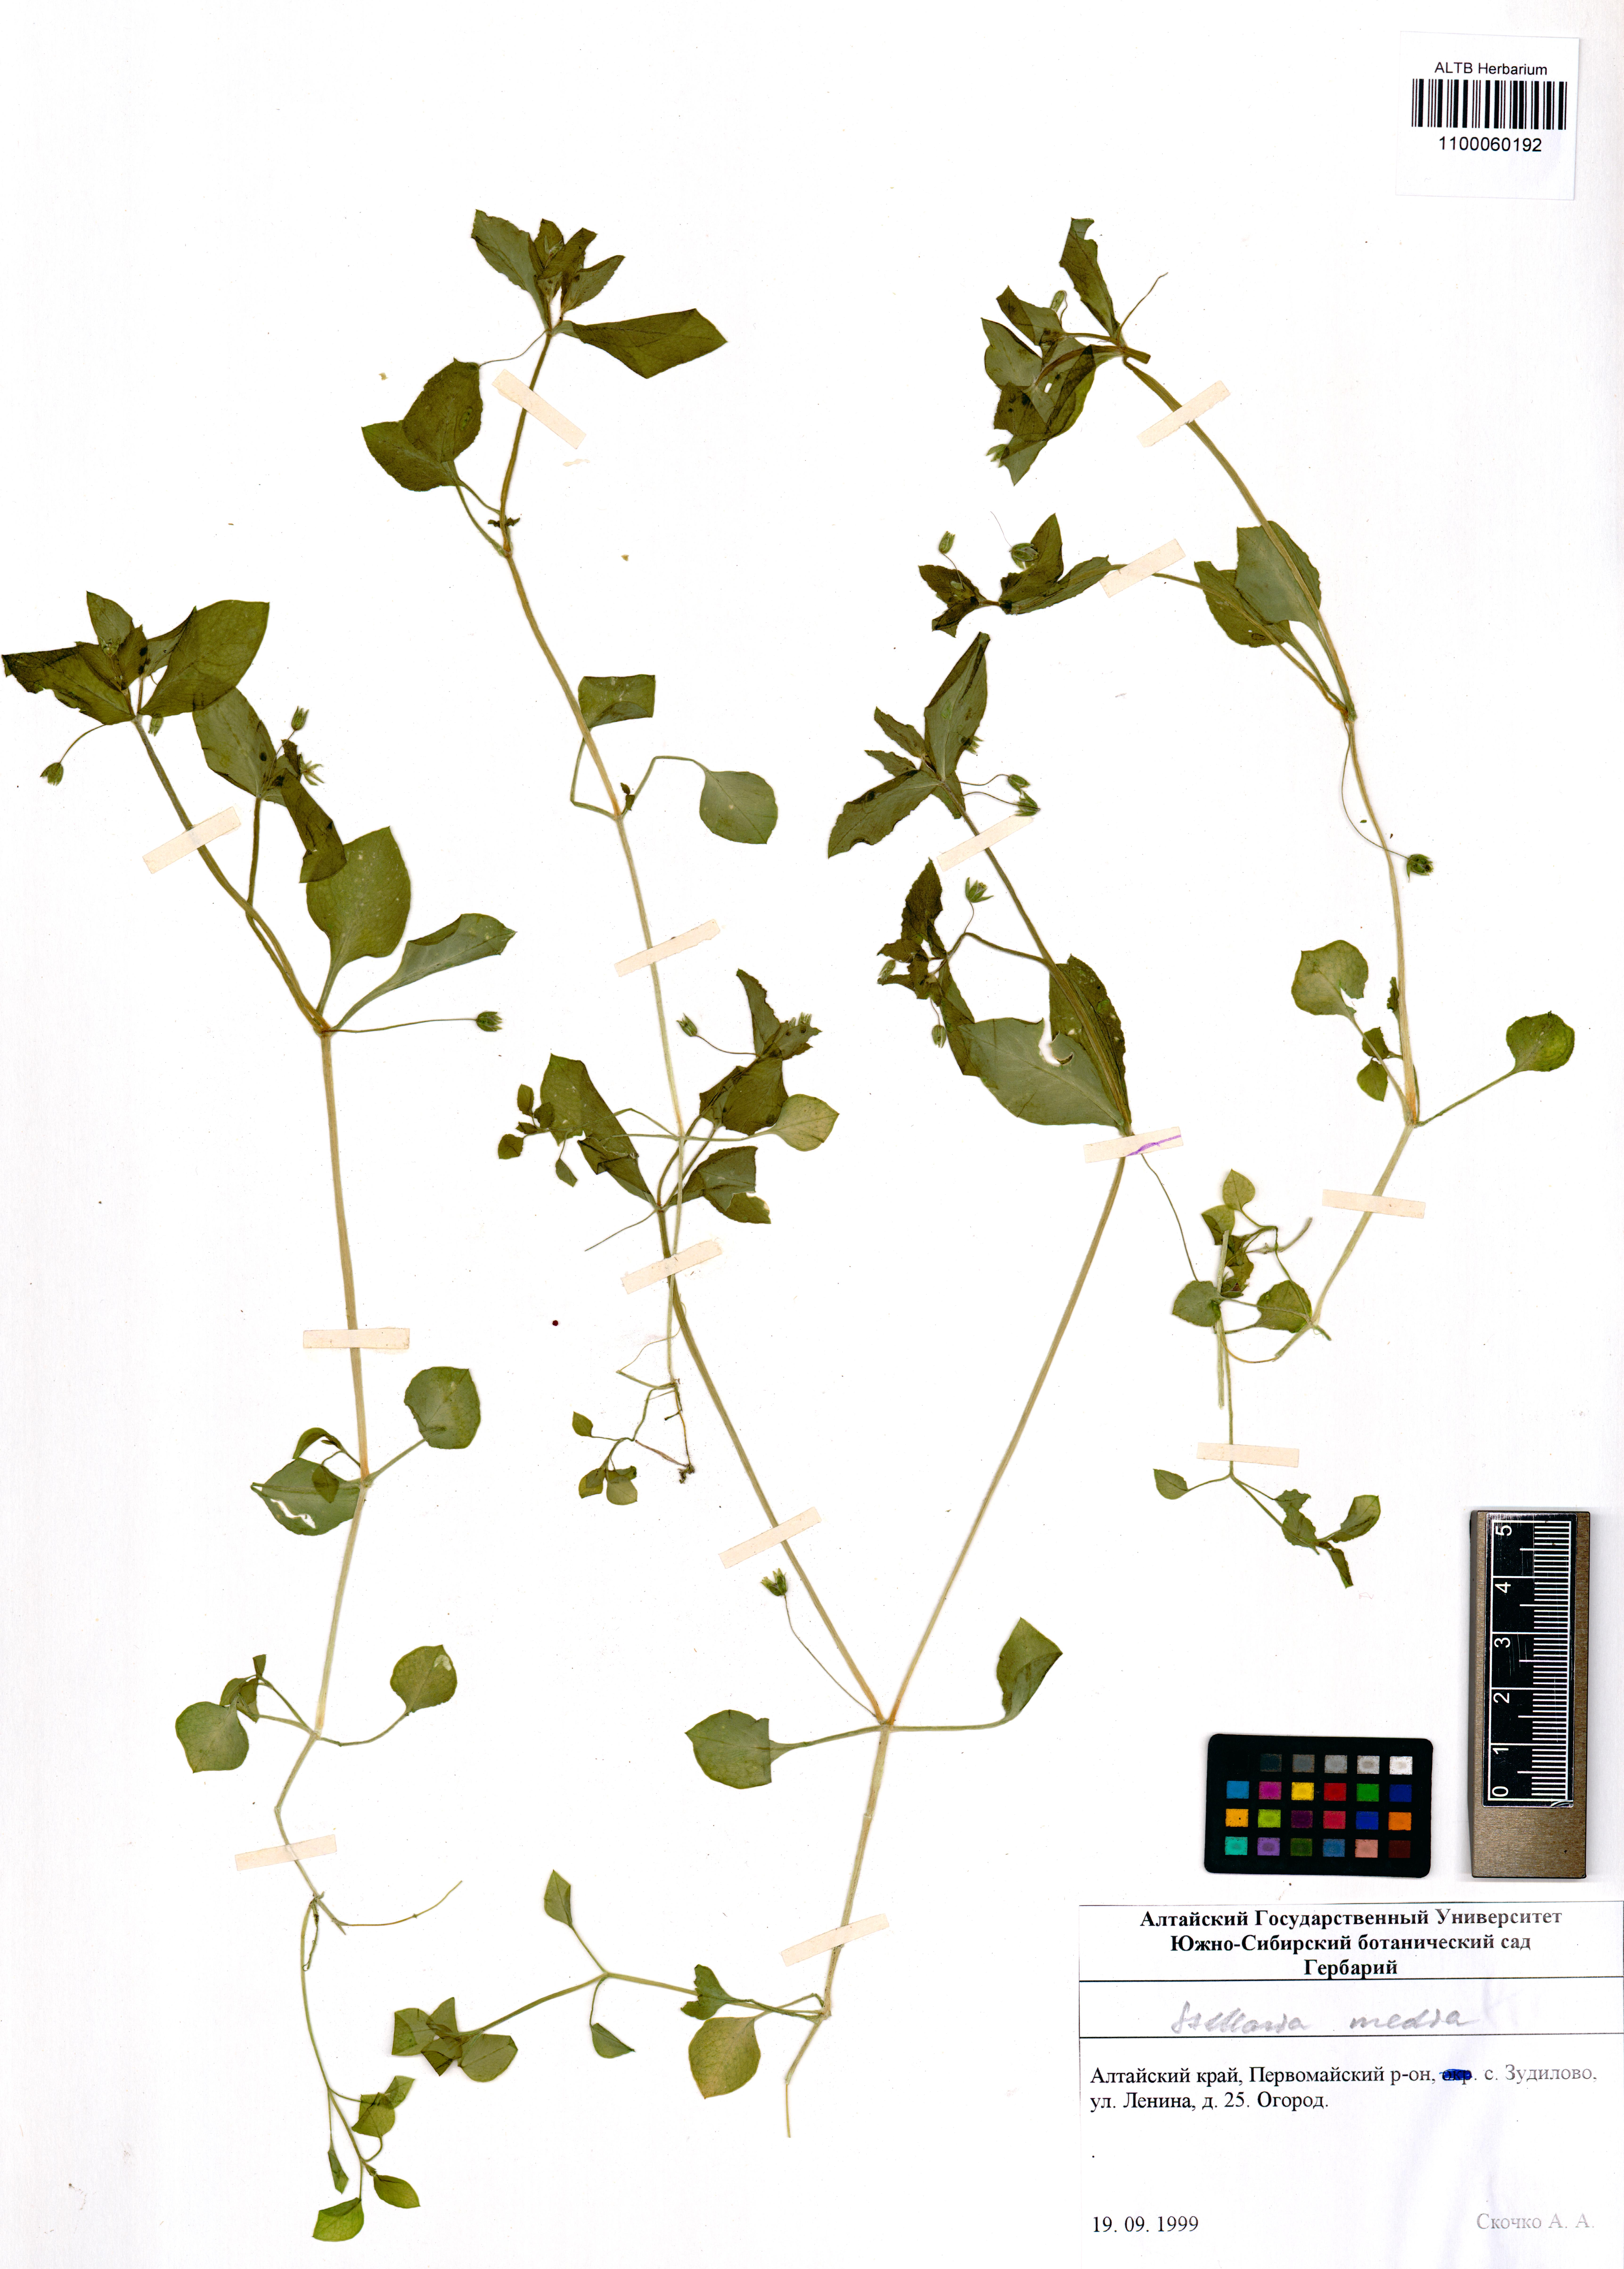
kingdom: Plantae
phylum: Tracheophyta
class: Magnoliopsida
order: Caryophyllales
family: Caryophyllaceae
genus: Stellaria
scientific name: Stellaria media
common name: Common chickweed
